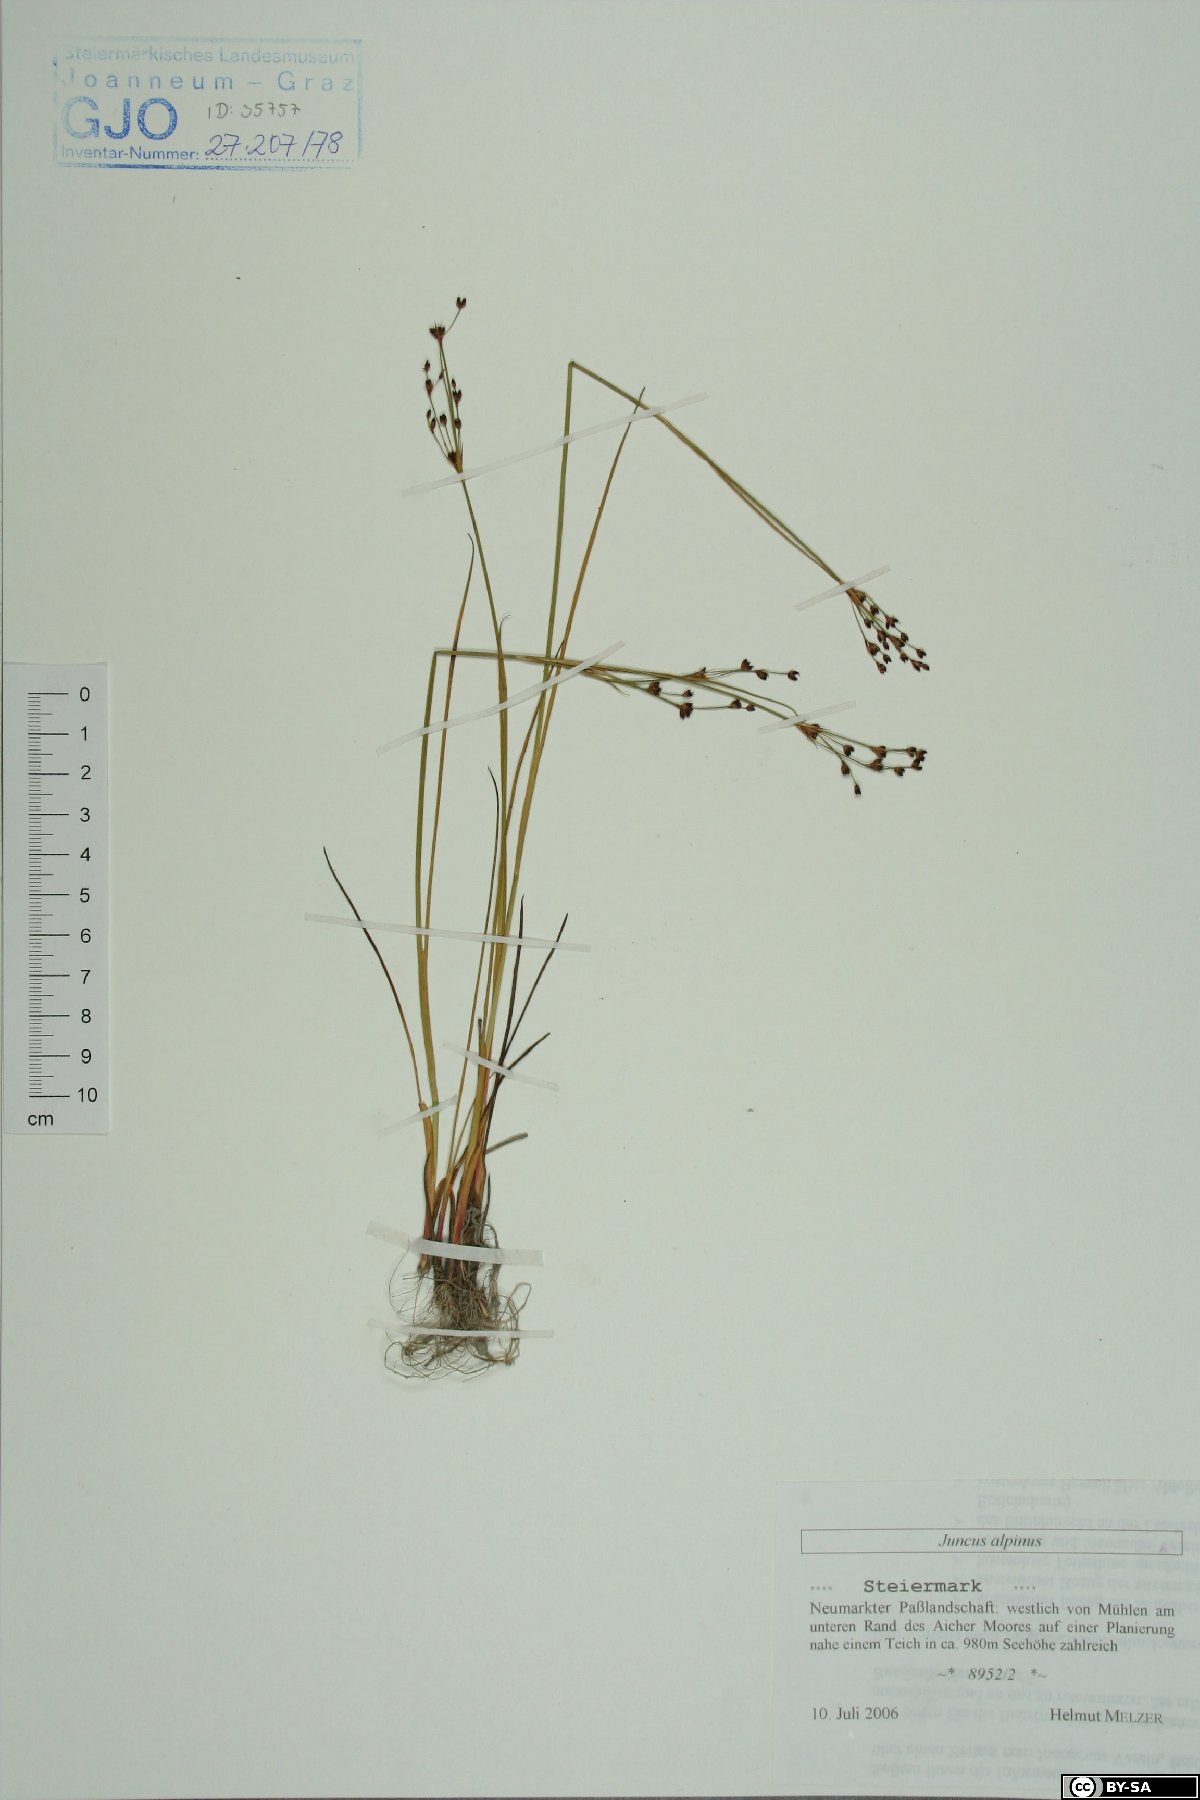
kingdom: Plantae
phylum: Tracheophyta
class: Liliopsida
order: Poales
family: Juncaceae
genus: Juncus
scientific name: Juncus alpinoarticulatus
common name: Alpine rush
